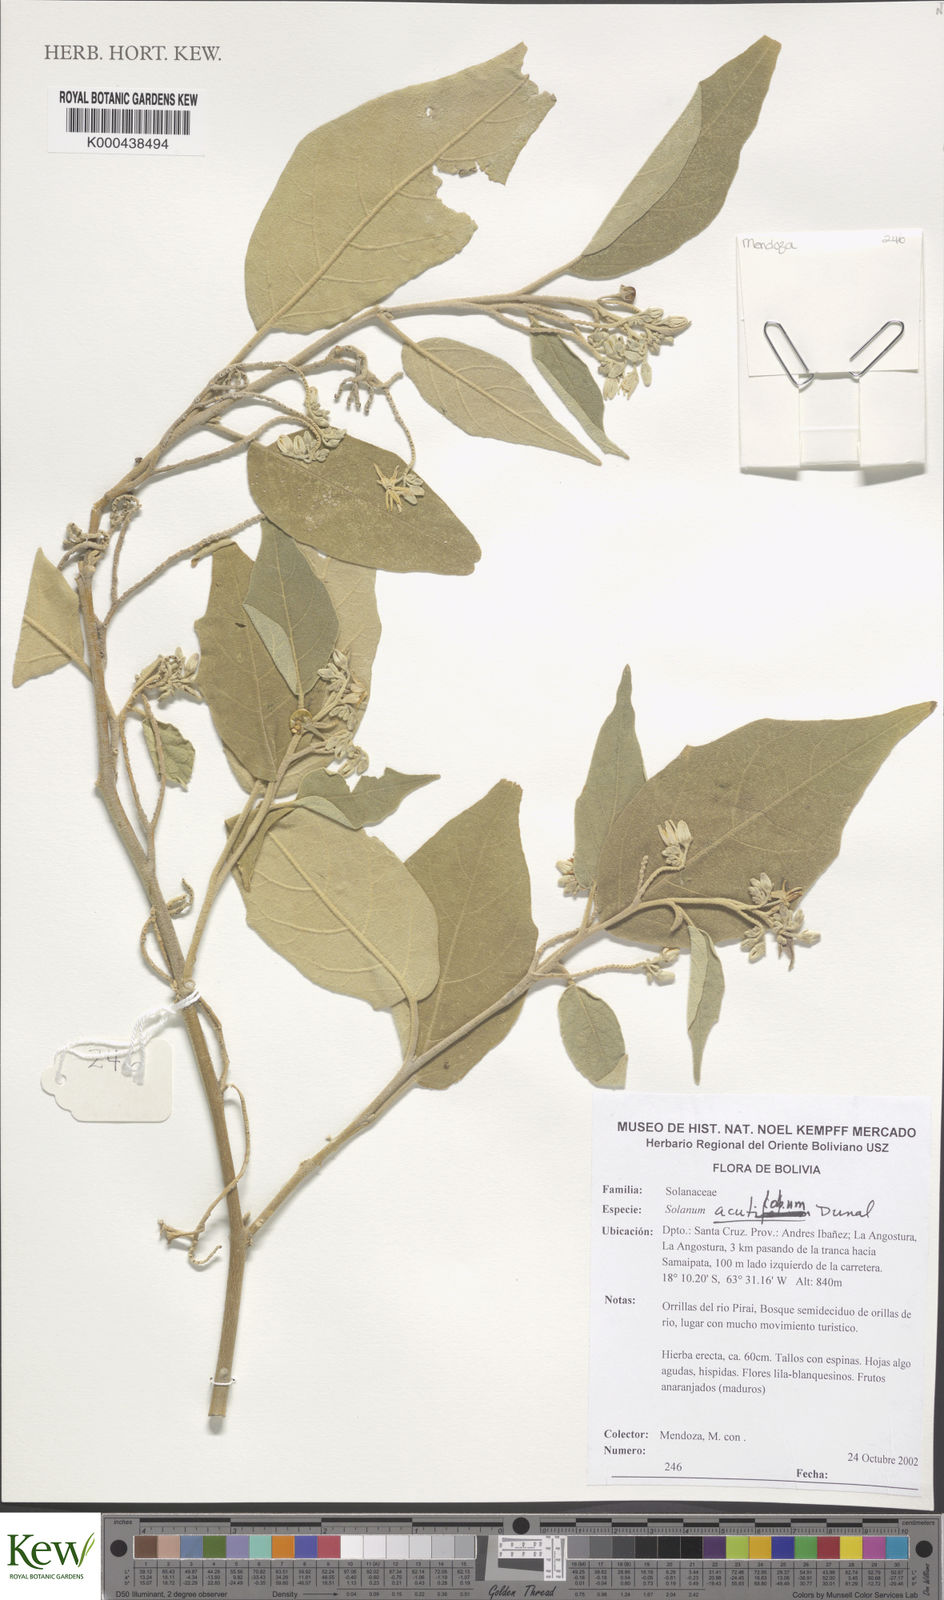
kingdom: Plantae
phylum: Tracheophyta
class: Magnoliopsida
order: Solanales
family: Solanaceae
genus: Solanum
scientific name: Solanum acutilobum
